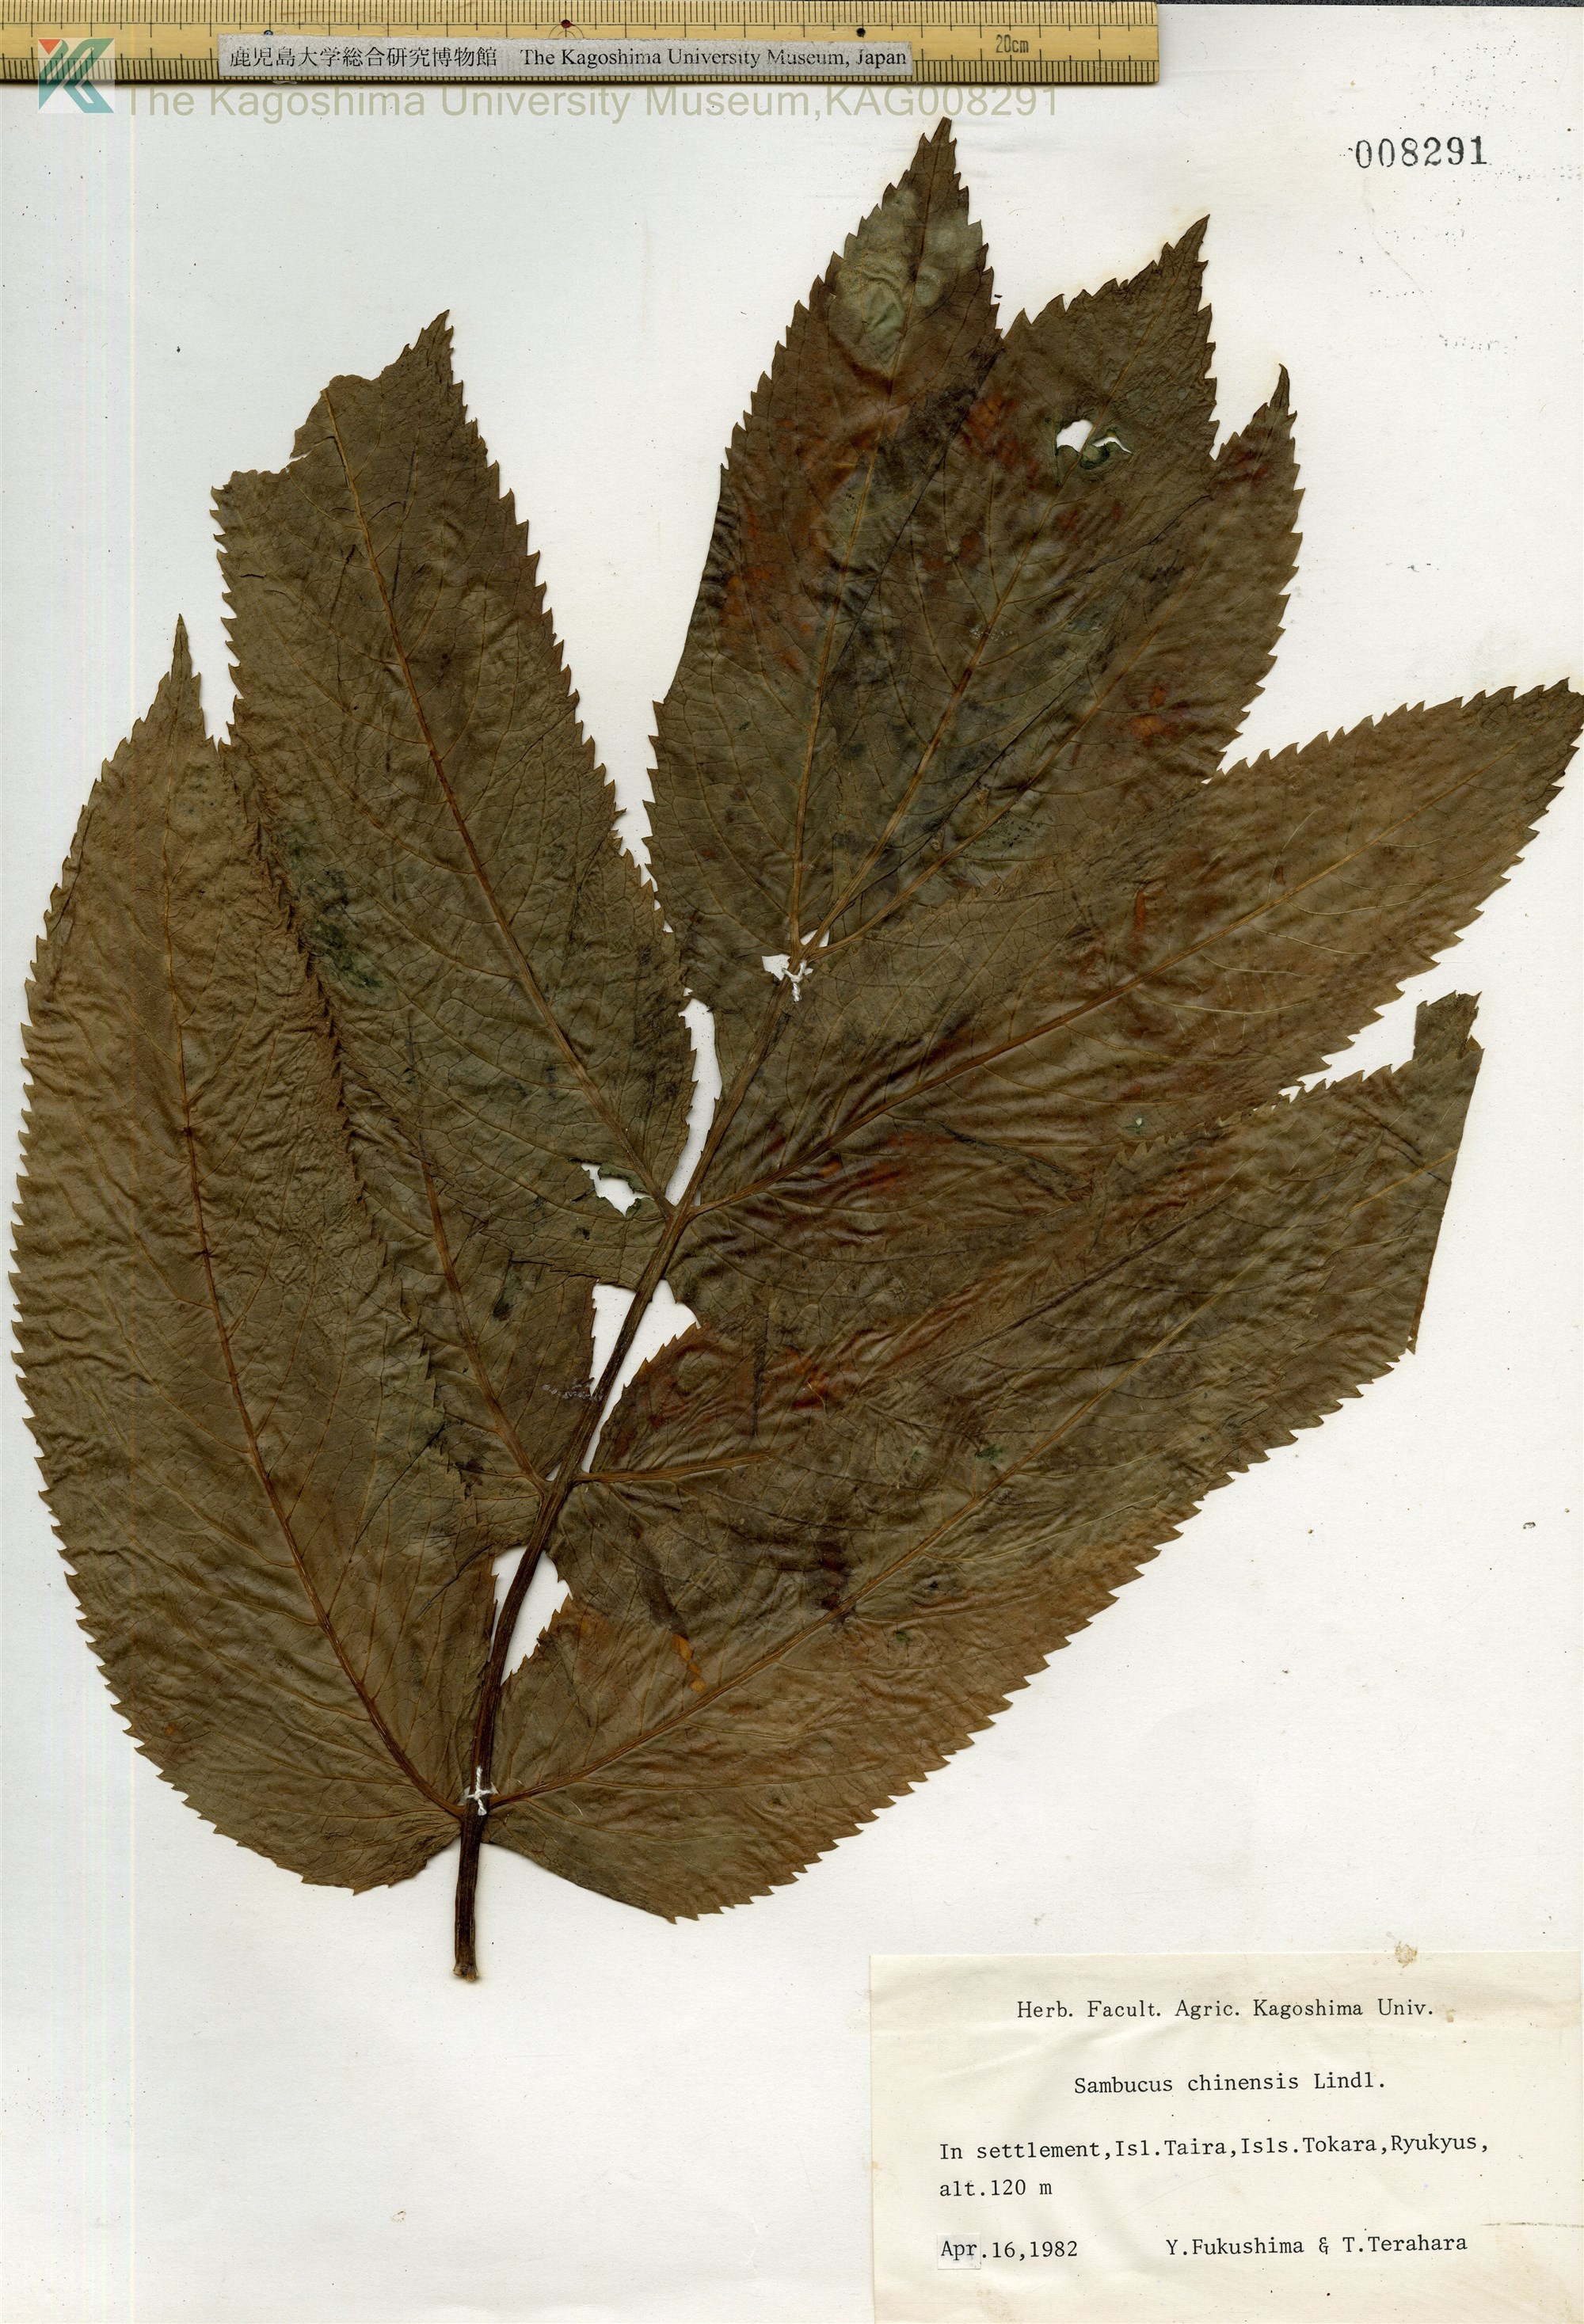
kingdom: Plantae
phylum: Tracheophyta
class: Magnoliopsida
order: Dipsacales
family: Viburnaceae
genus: Sambucus
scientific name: Sambucus javanica
